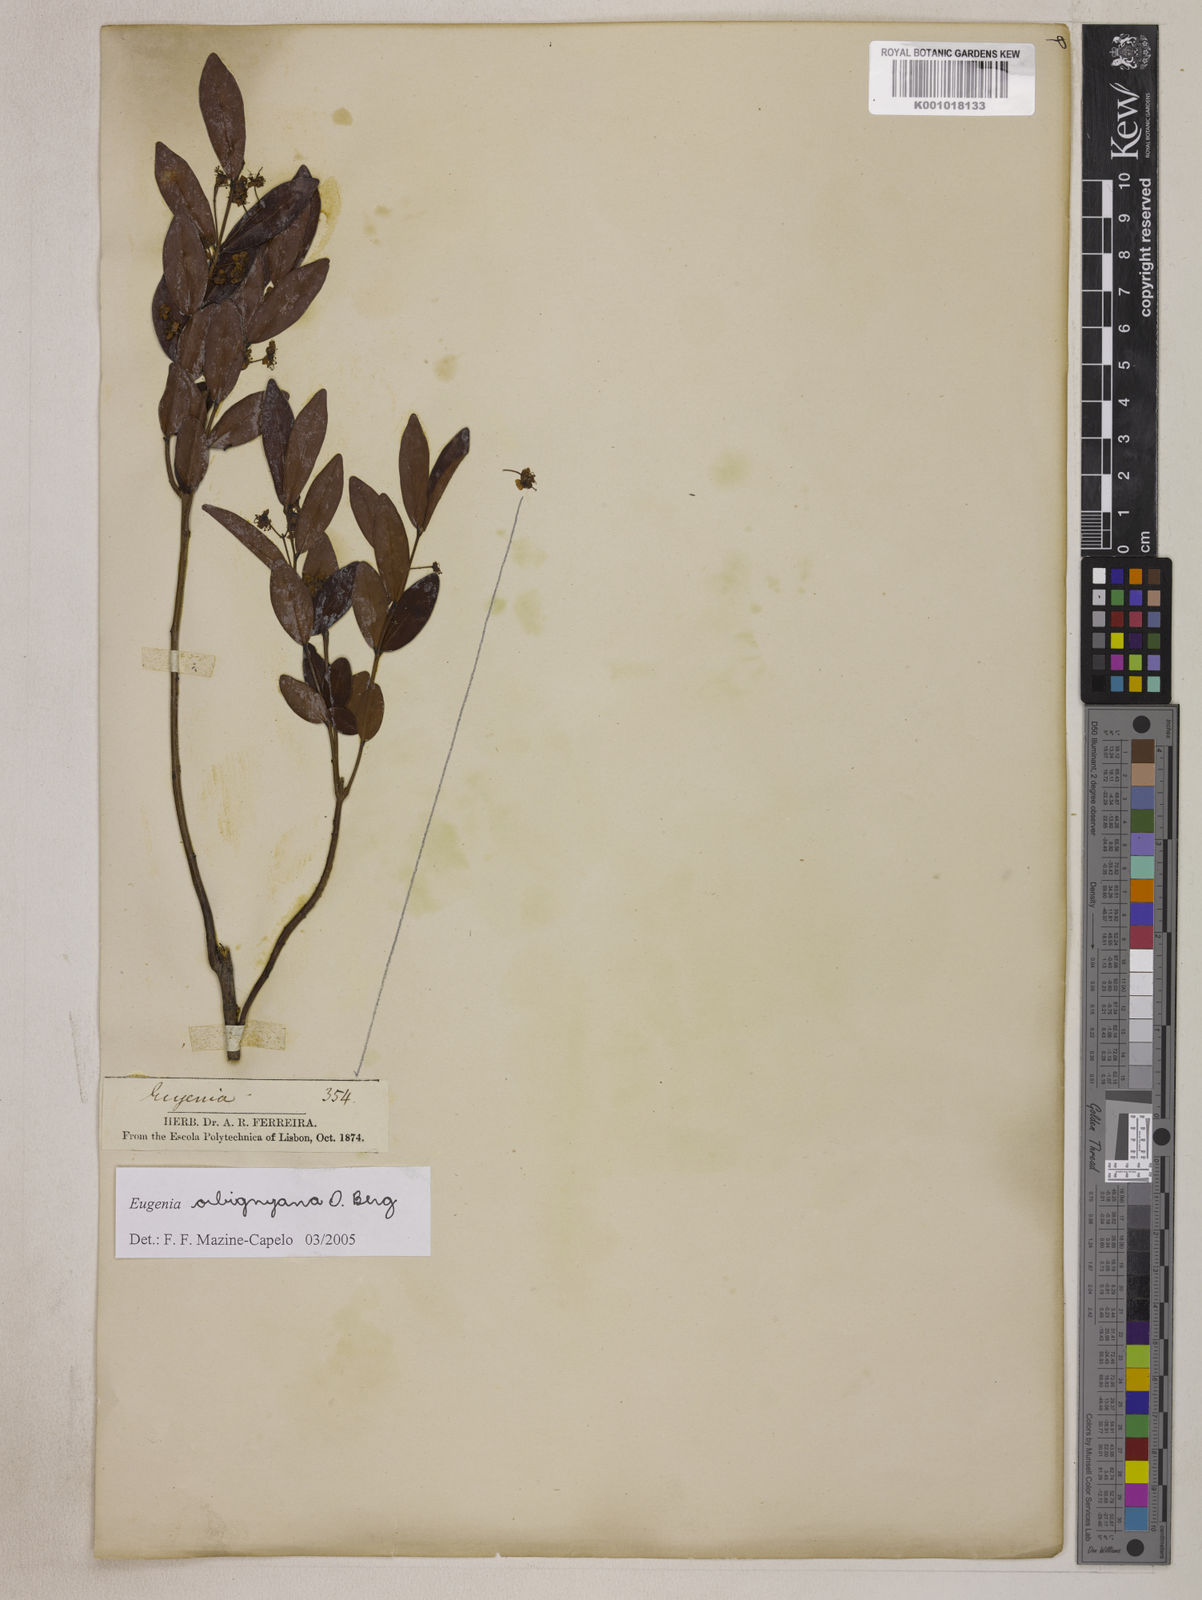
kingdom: Plantae
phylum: Tracheophyta
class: Magnoliopsida
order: Myrtales
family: Myrtaceae
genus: Eugenia
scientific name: Eugenia orbignyana
